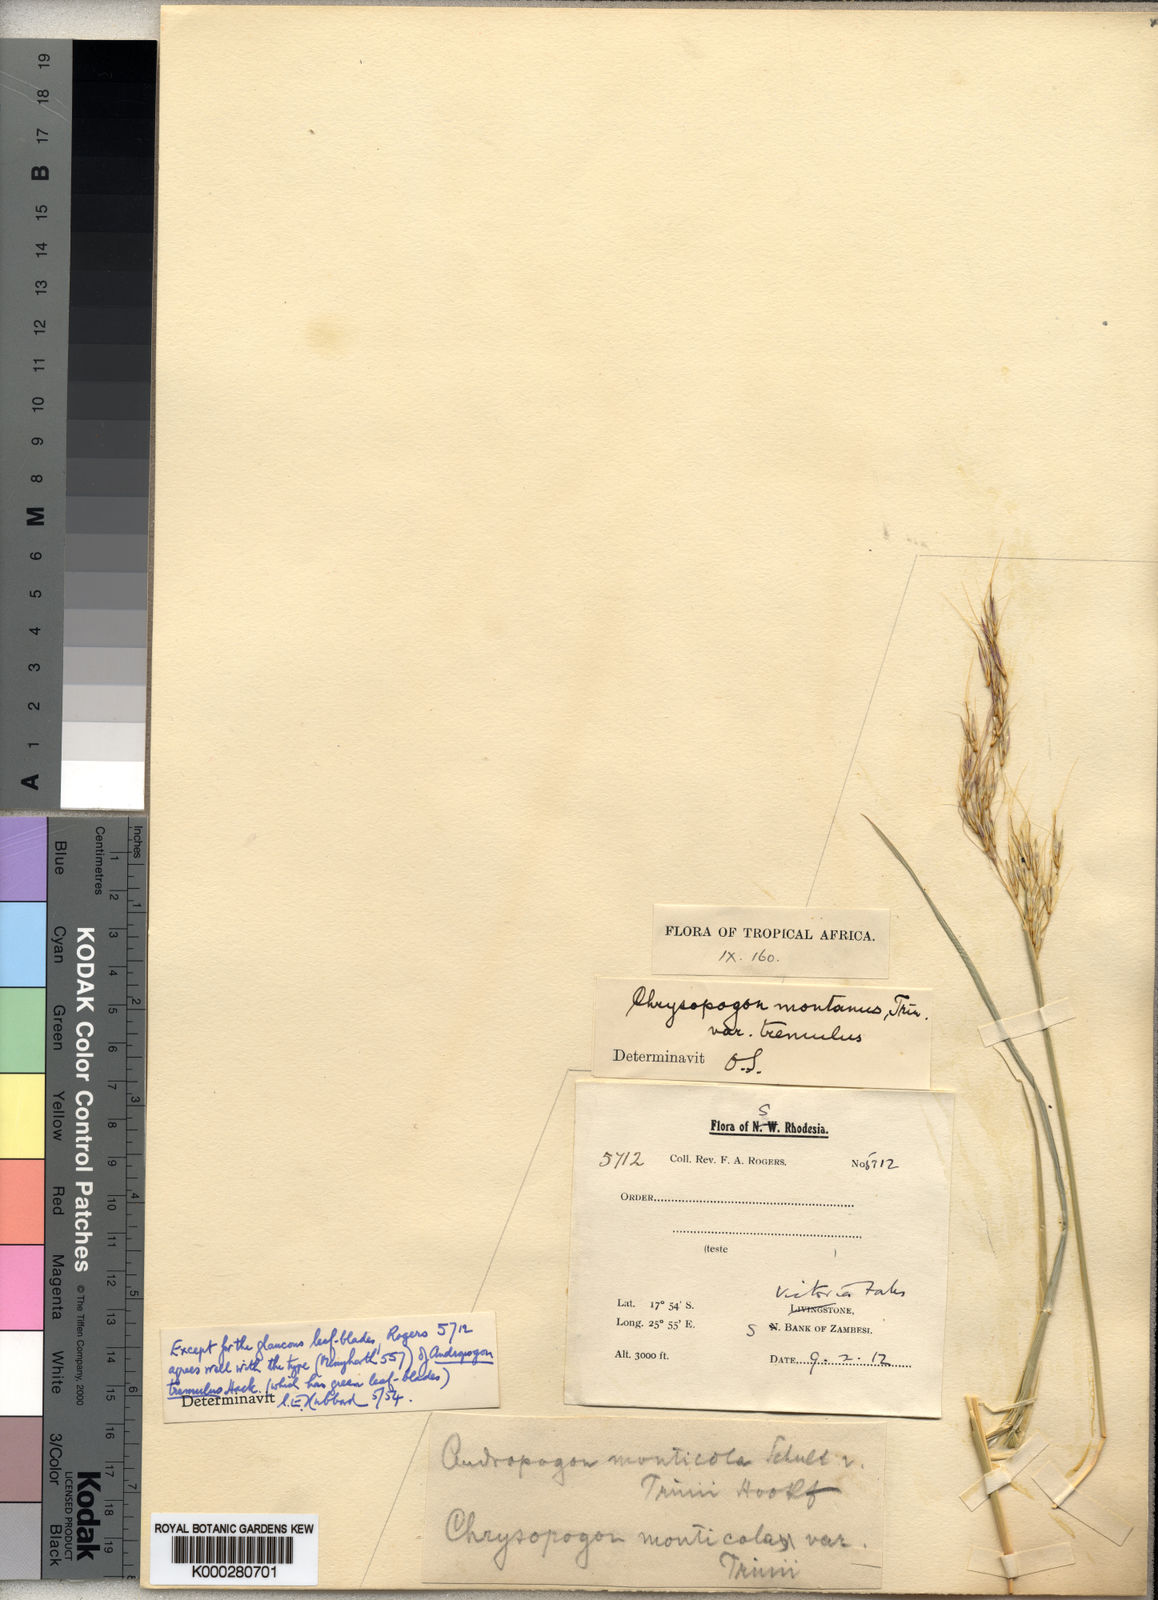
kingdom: Plantae
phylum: Tracheophyta
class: Liliopsida
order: Poales
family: Poaceae
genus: Chrysopogon
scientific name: Chrysopogon serrulatus
